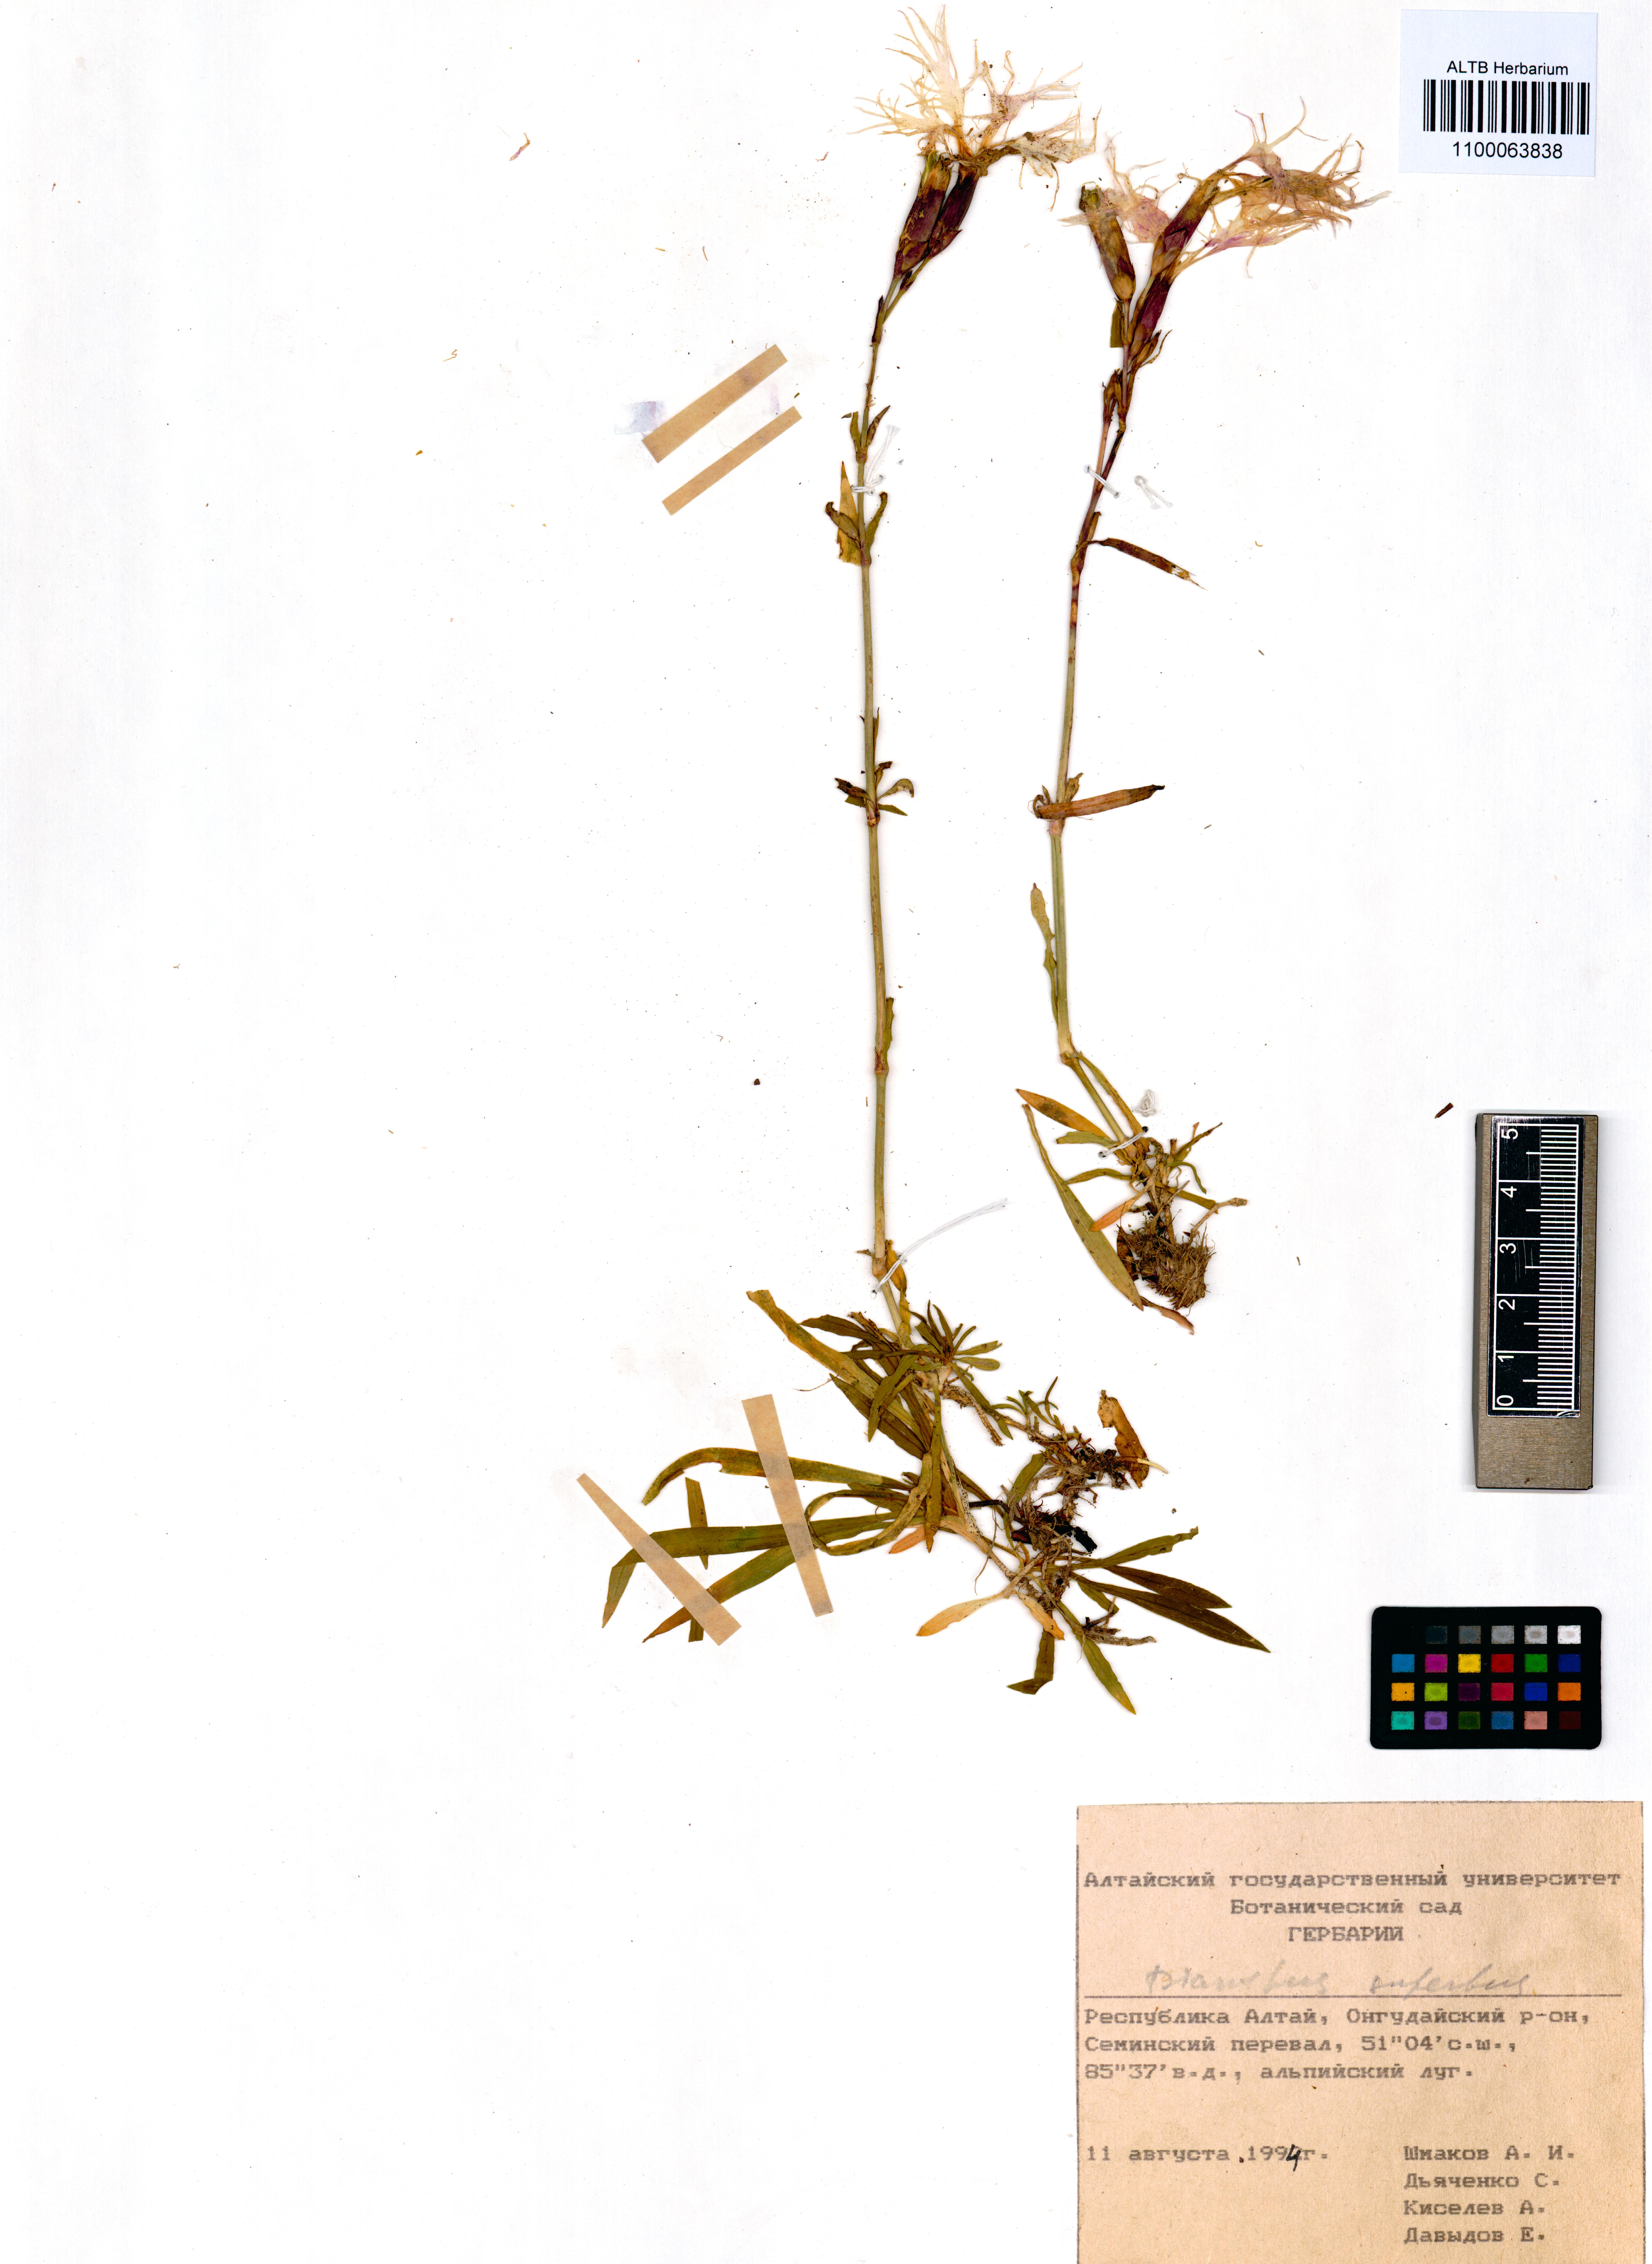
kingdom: Plantae
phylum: Tracheophyta
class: Magnoliopsida
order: Caryophyllales
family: Caryophyllaceae
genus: Dianthus
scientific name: Dianthus superbus
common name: Fringed pink
